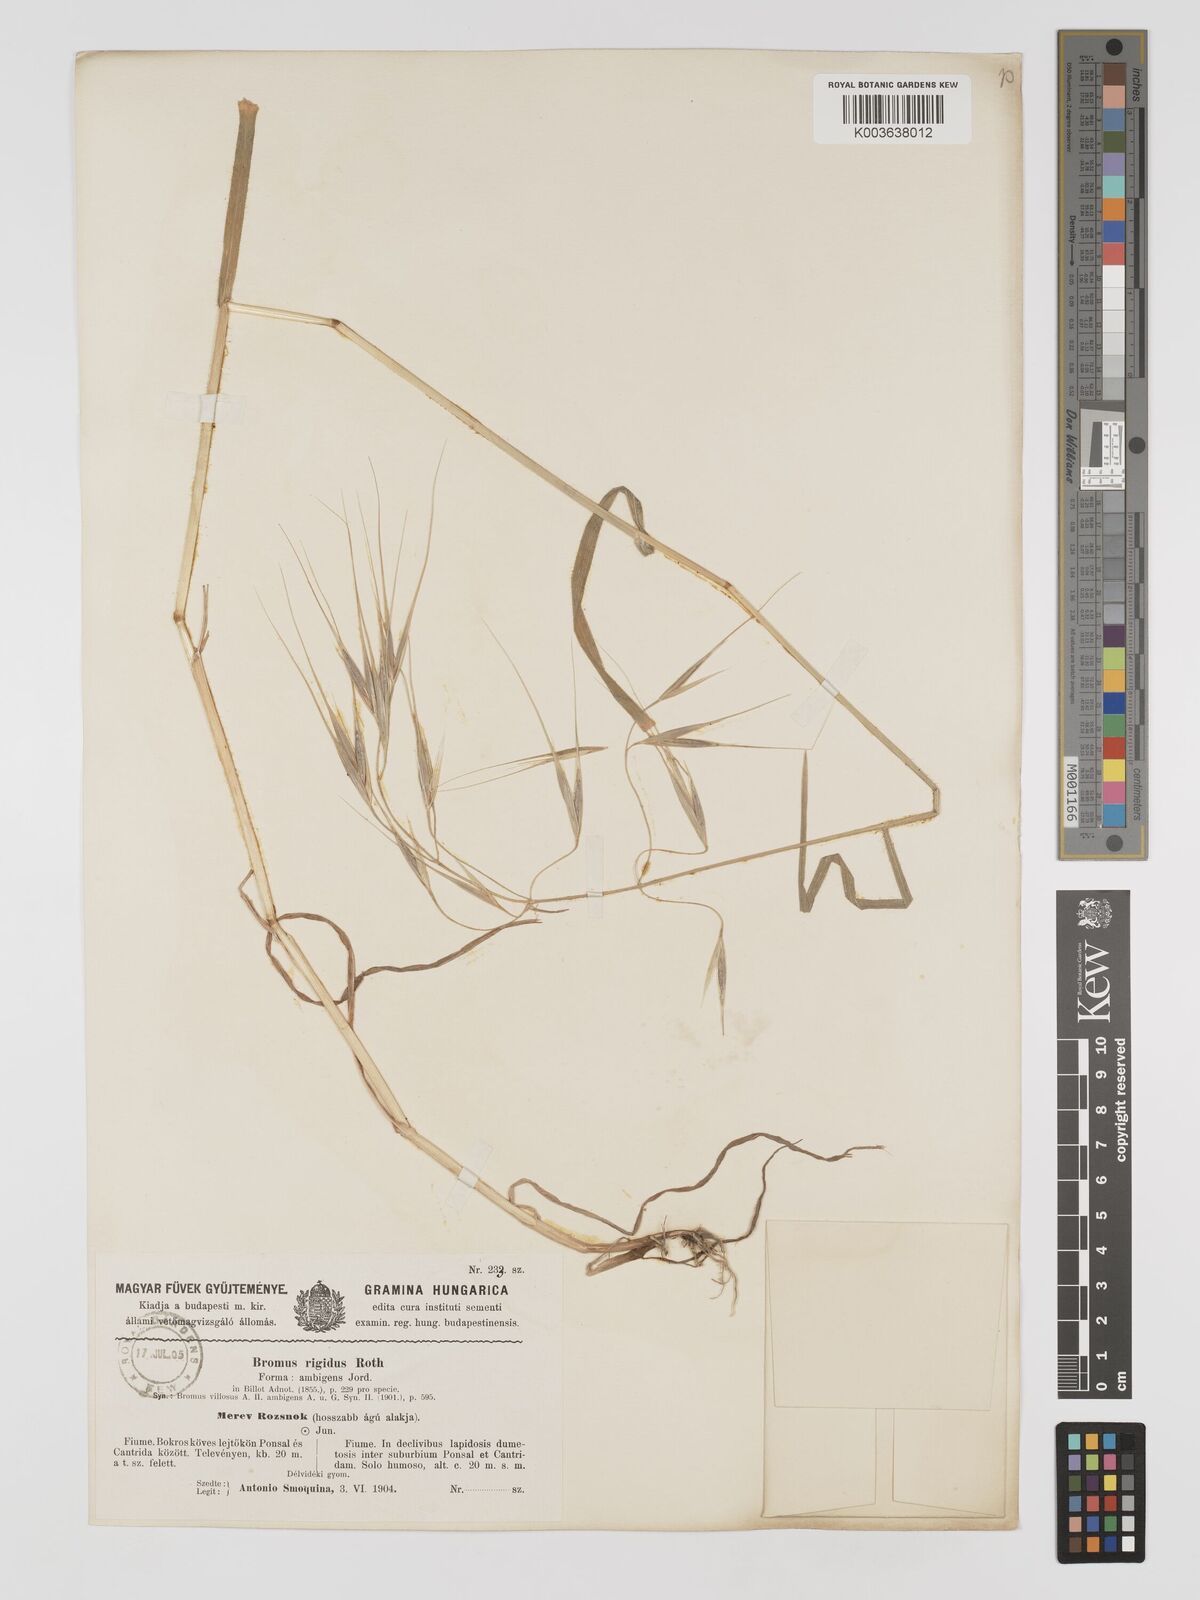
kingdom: Plantae
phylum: Tracheophyta
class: Liliopsida
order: Poales
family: Poaceae
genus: Bromus
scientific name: Bromus
